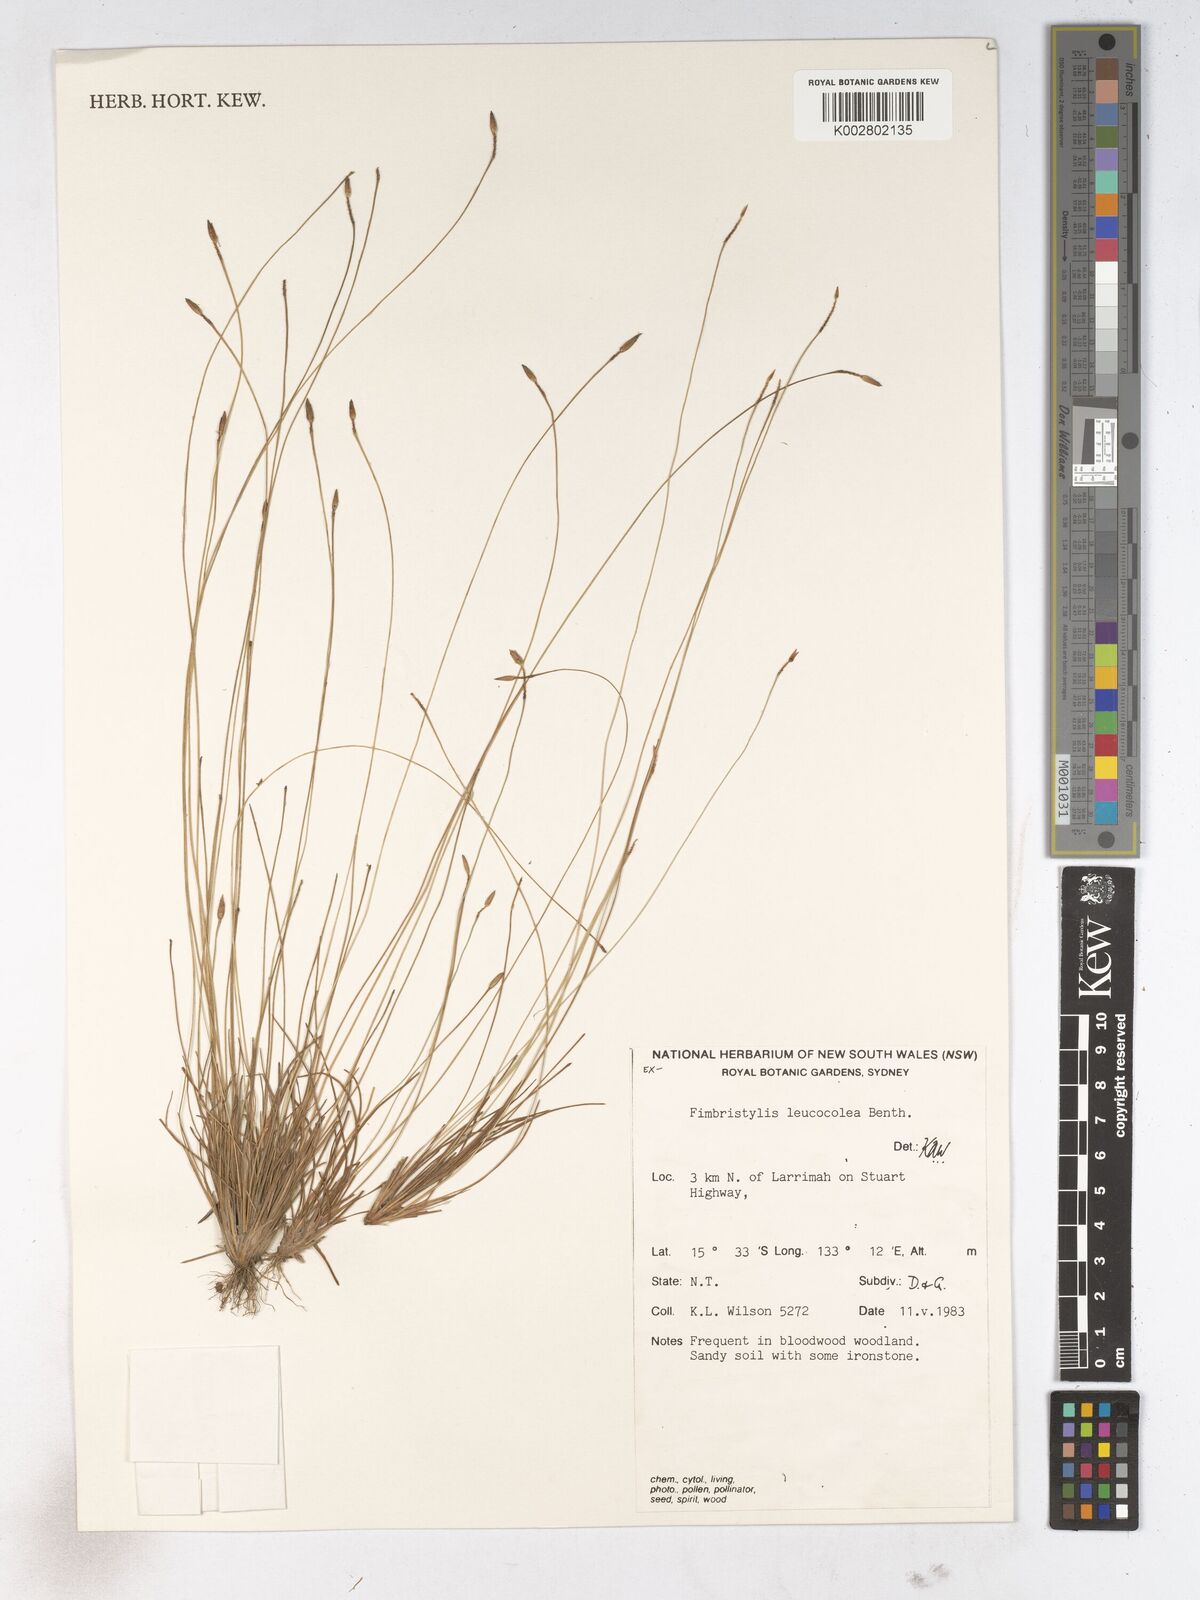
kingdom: Plantae
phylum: Tracheophyta
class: Liliopsida
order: Poales
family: Cyperaceae
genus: Fimbristylis
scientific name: Fimbristylis leucocolea
